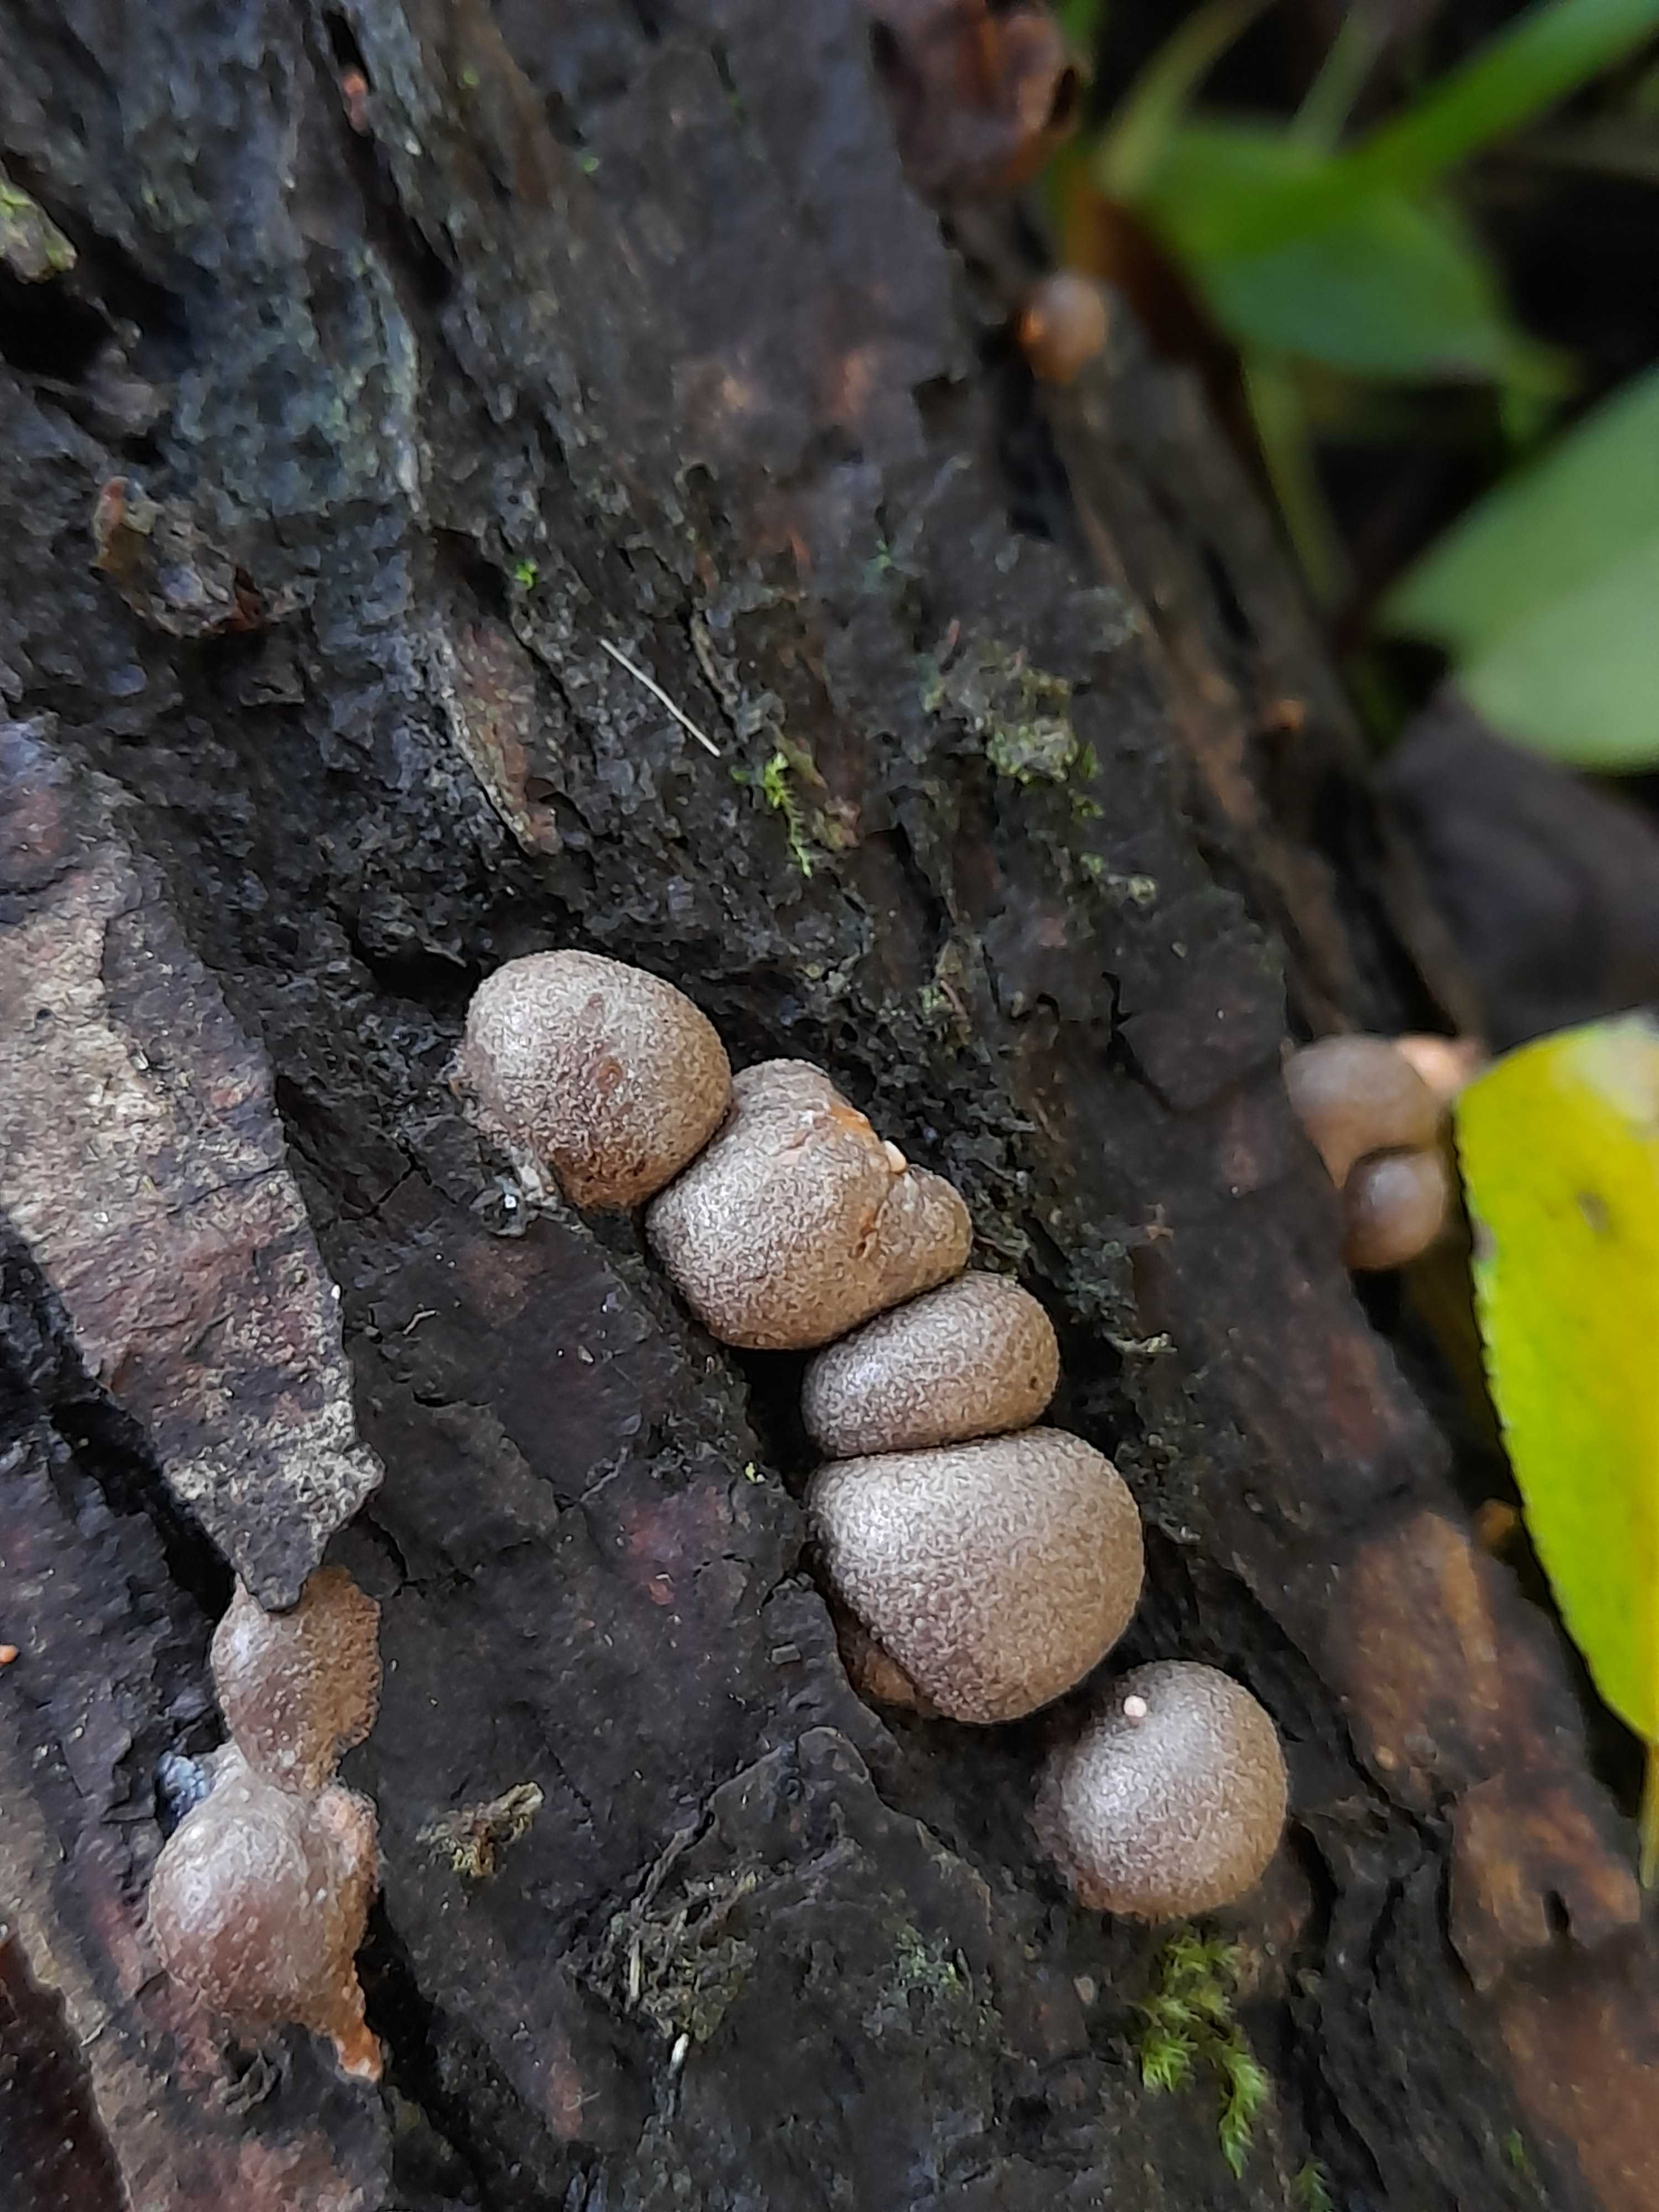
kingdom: Protozoa
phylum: Mycetozoa
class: Myxomycetes
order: Cribrariales
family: Tubiferaceae
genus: Lycogala
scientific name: Lycogala epidendrum
